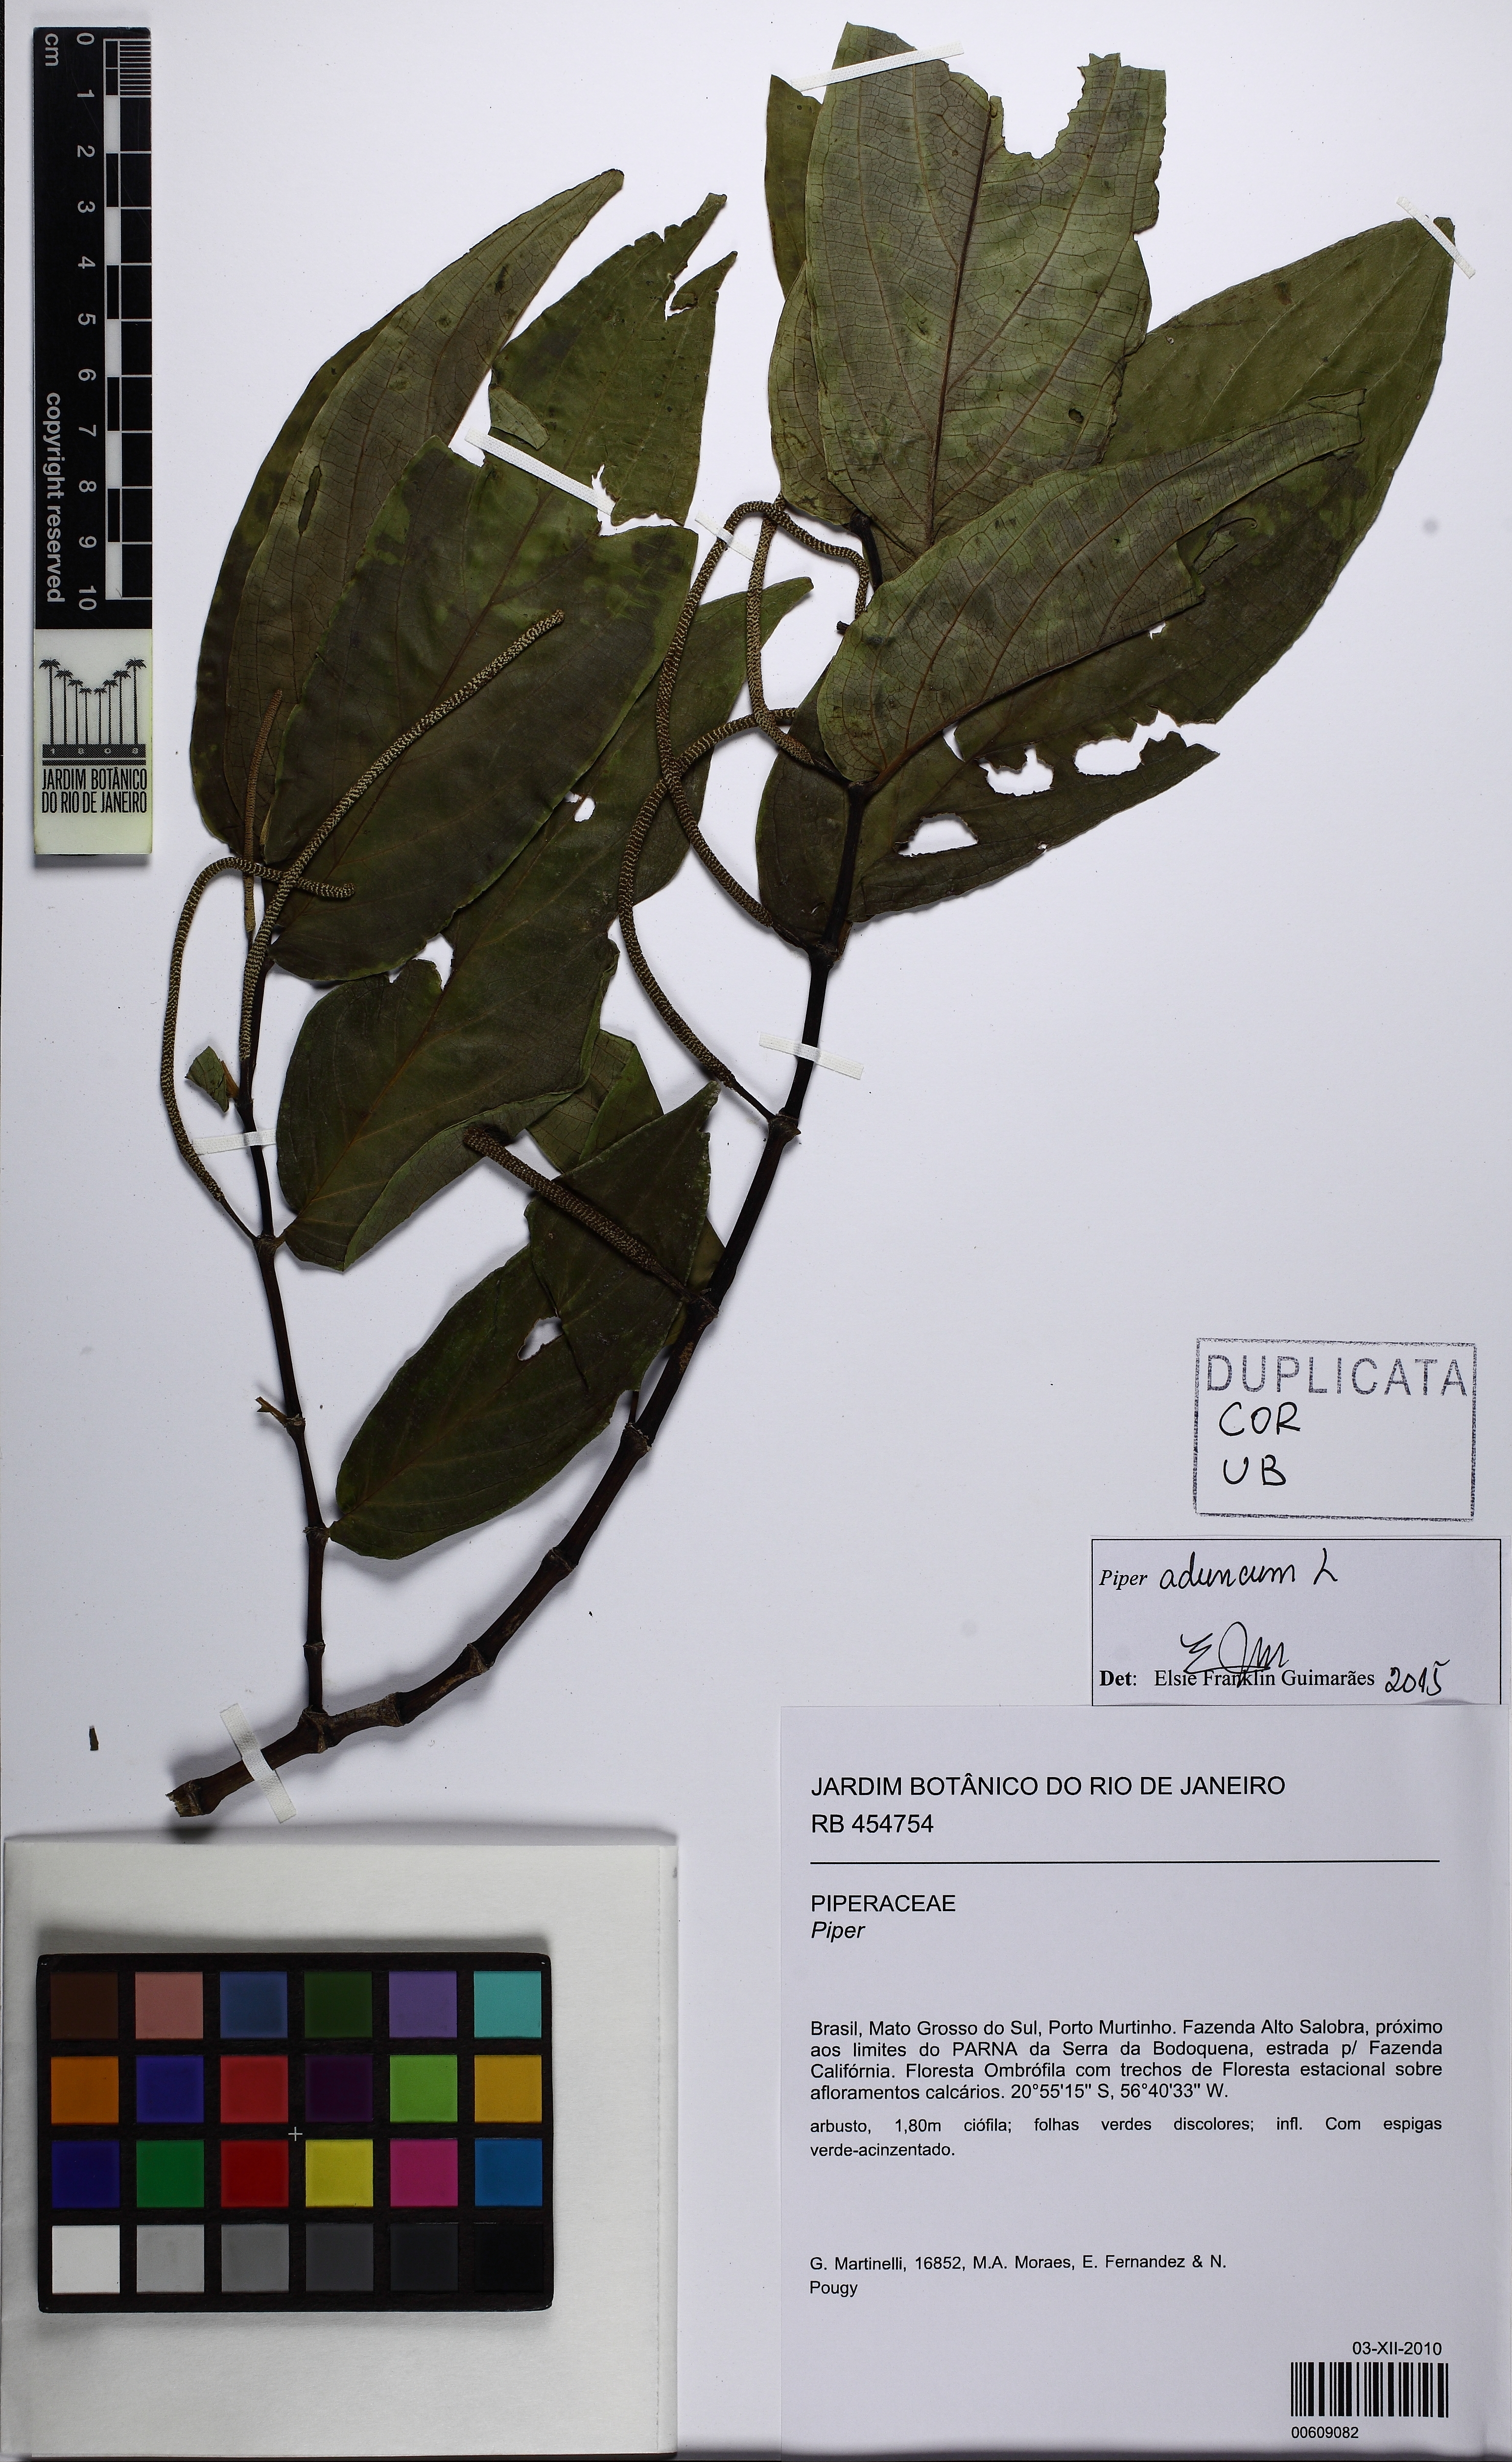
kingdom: Plantae
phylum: Tracheophyta
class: Magnoliopsida
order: Piperales
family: Piperaceae
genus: Piper
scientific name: Piper aduncum
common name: Spiked pepper
